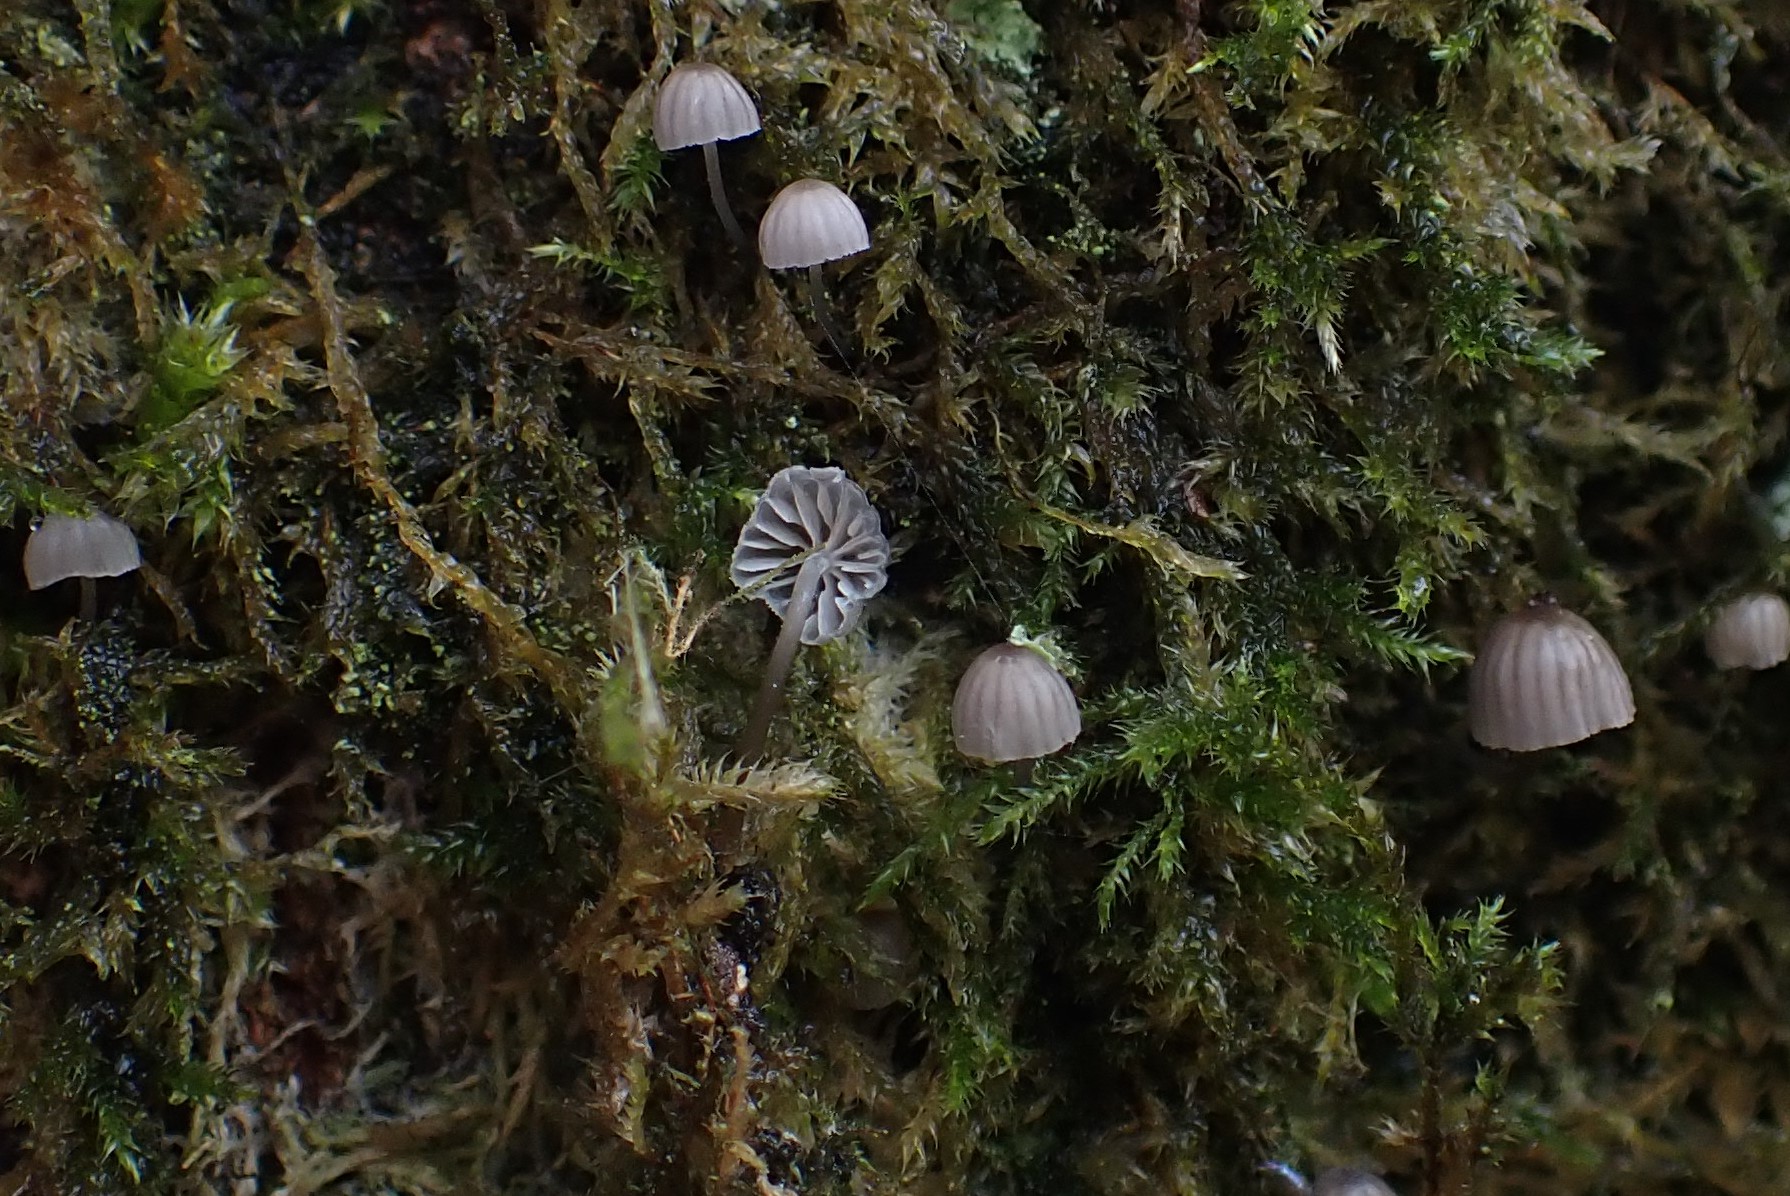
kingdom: Fungi
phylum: Basidiomycota
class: Agaricomycetes
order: Agaricales
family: Mycenaceae
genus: Mycena
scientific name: Mycena pseudocorticola
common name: gråblå bark-huesvamp
